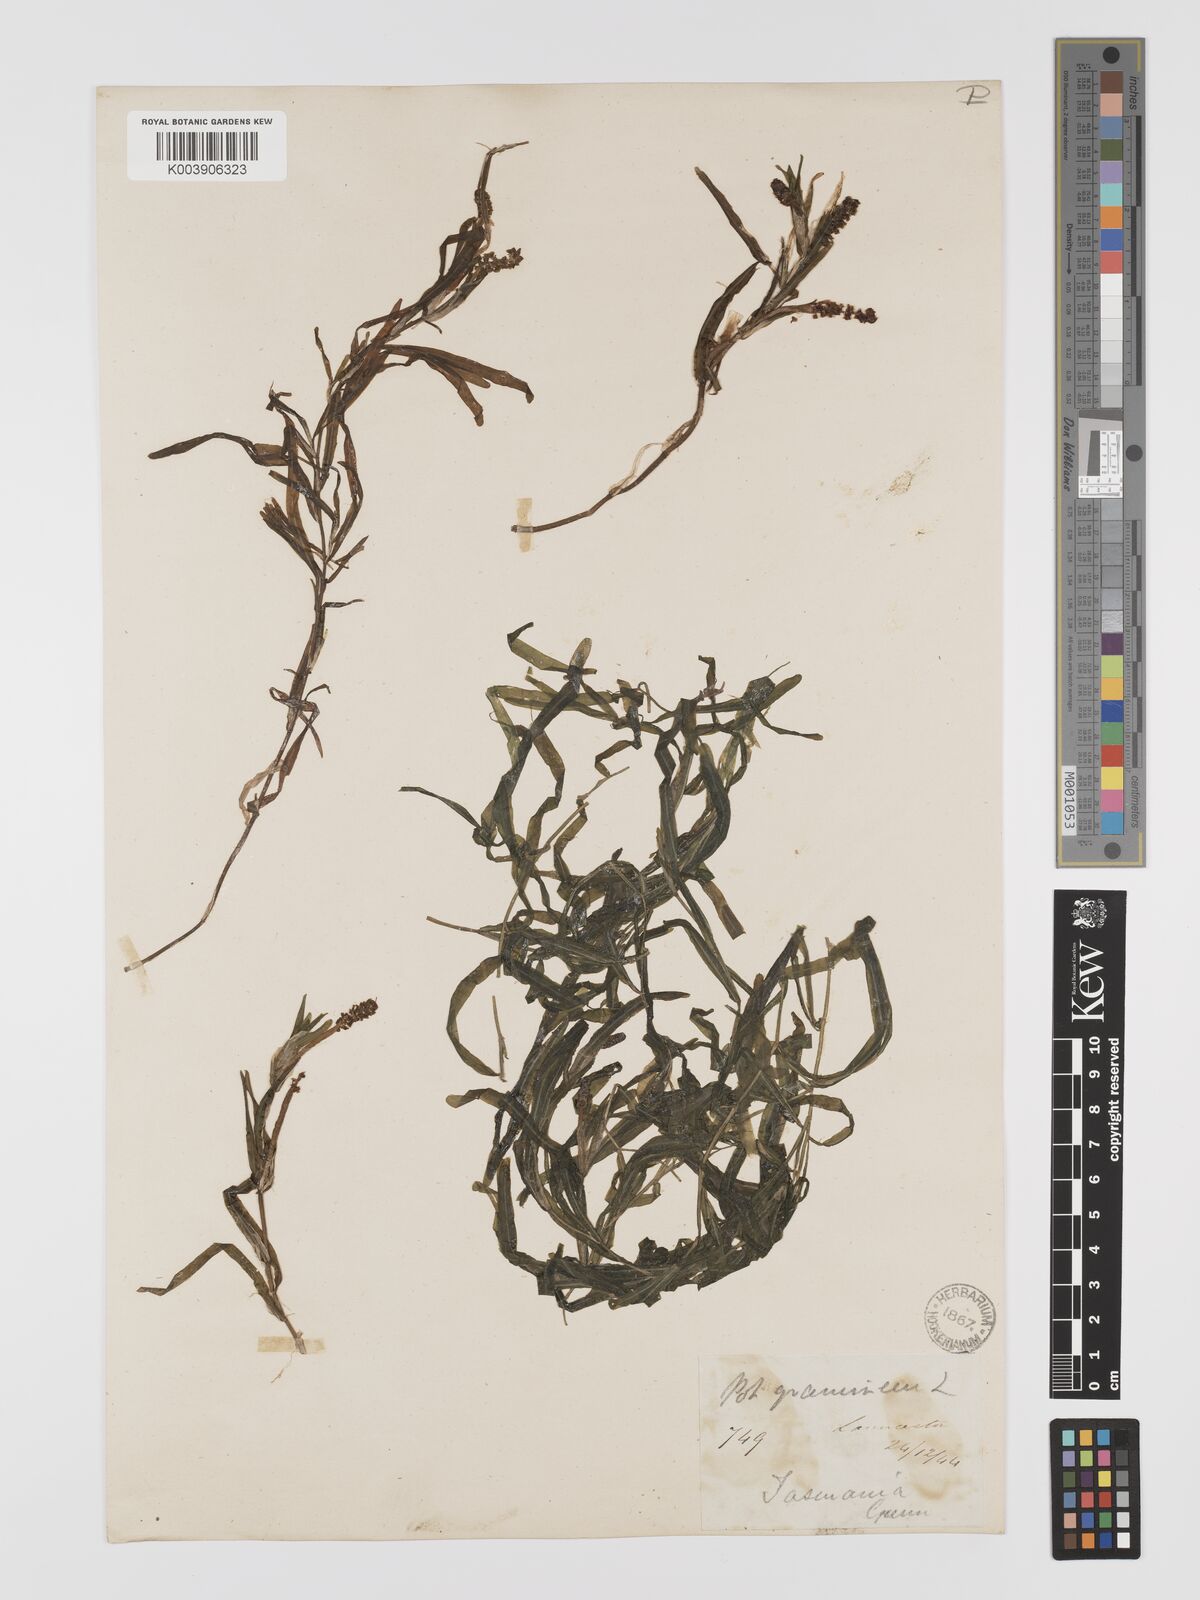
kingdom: Plantae
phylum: Tracheophyta
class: Liliopsida
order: Alismatales
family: Potamogetonaceae
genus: Potamogeton
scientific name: Potamogeton ochreatus
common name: Blunt pondweed
